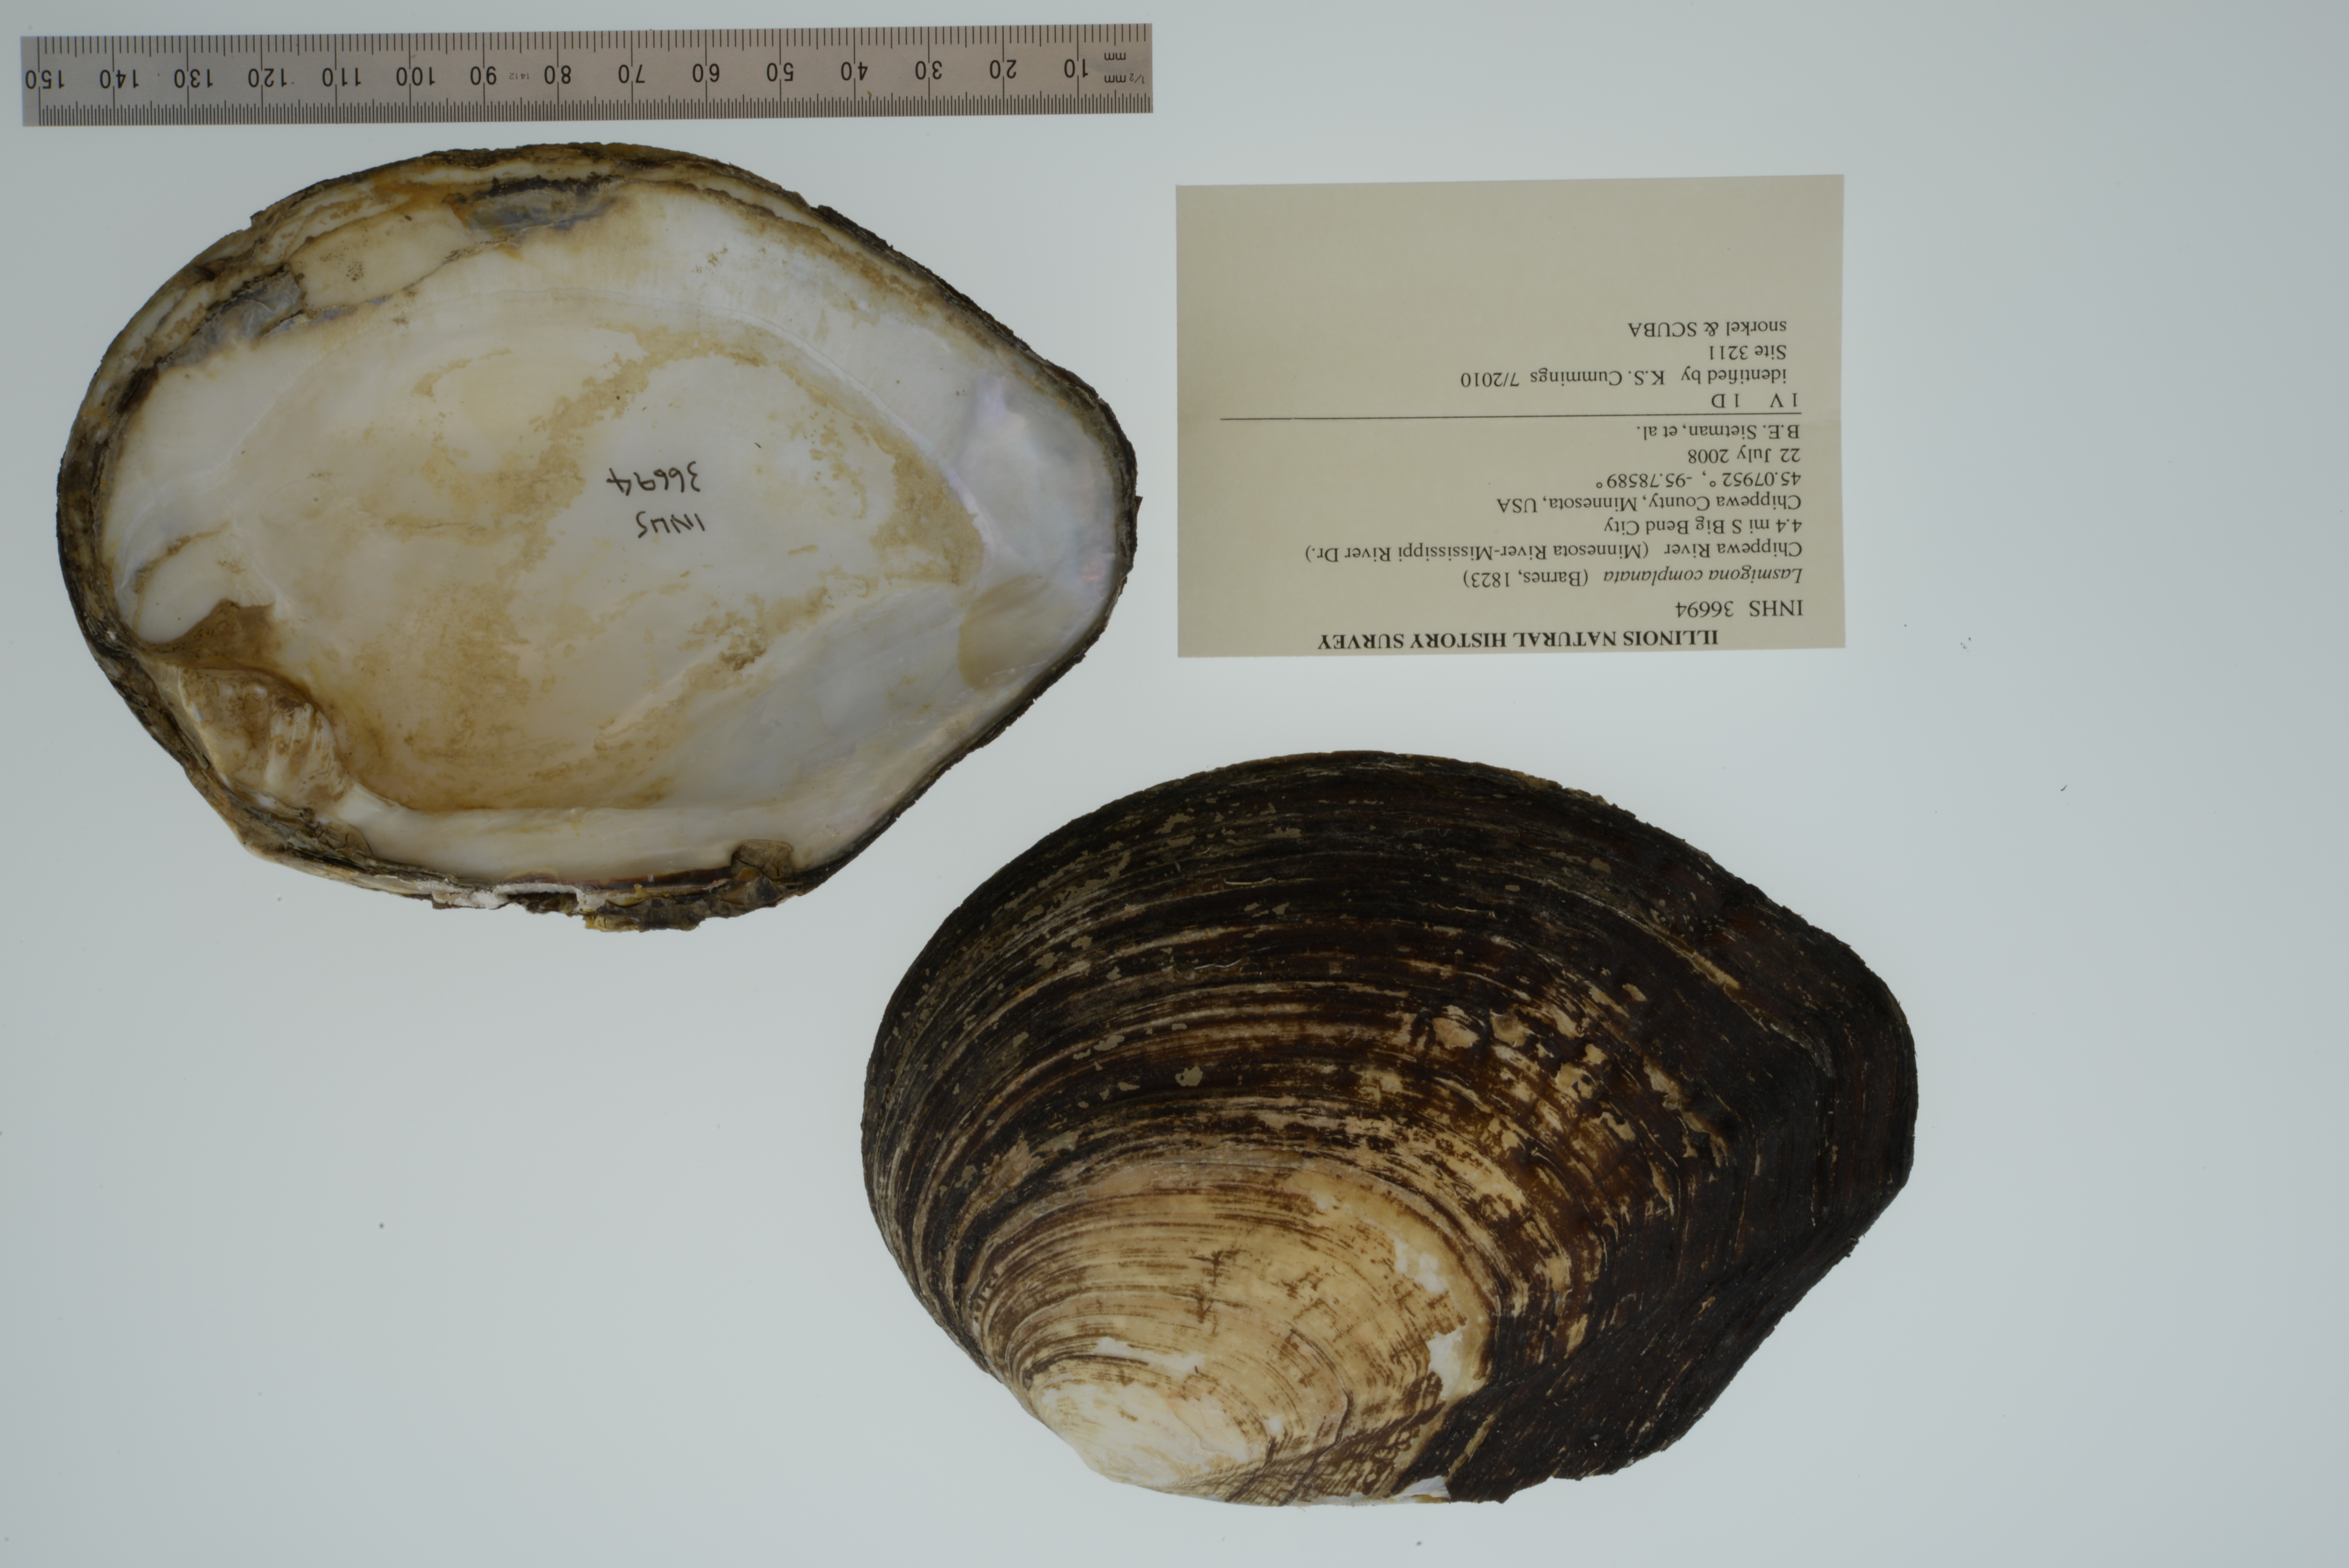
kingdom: Animalia
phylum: Mollusca
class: Bivalvia
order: Unionida
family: Unionidae
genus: Lasmigona
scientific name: Lasmigona complanata
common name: White heelsplitter
